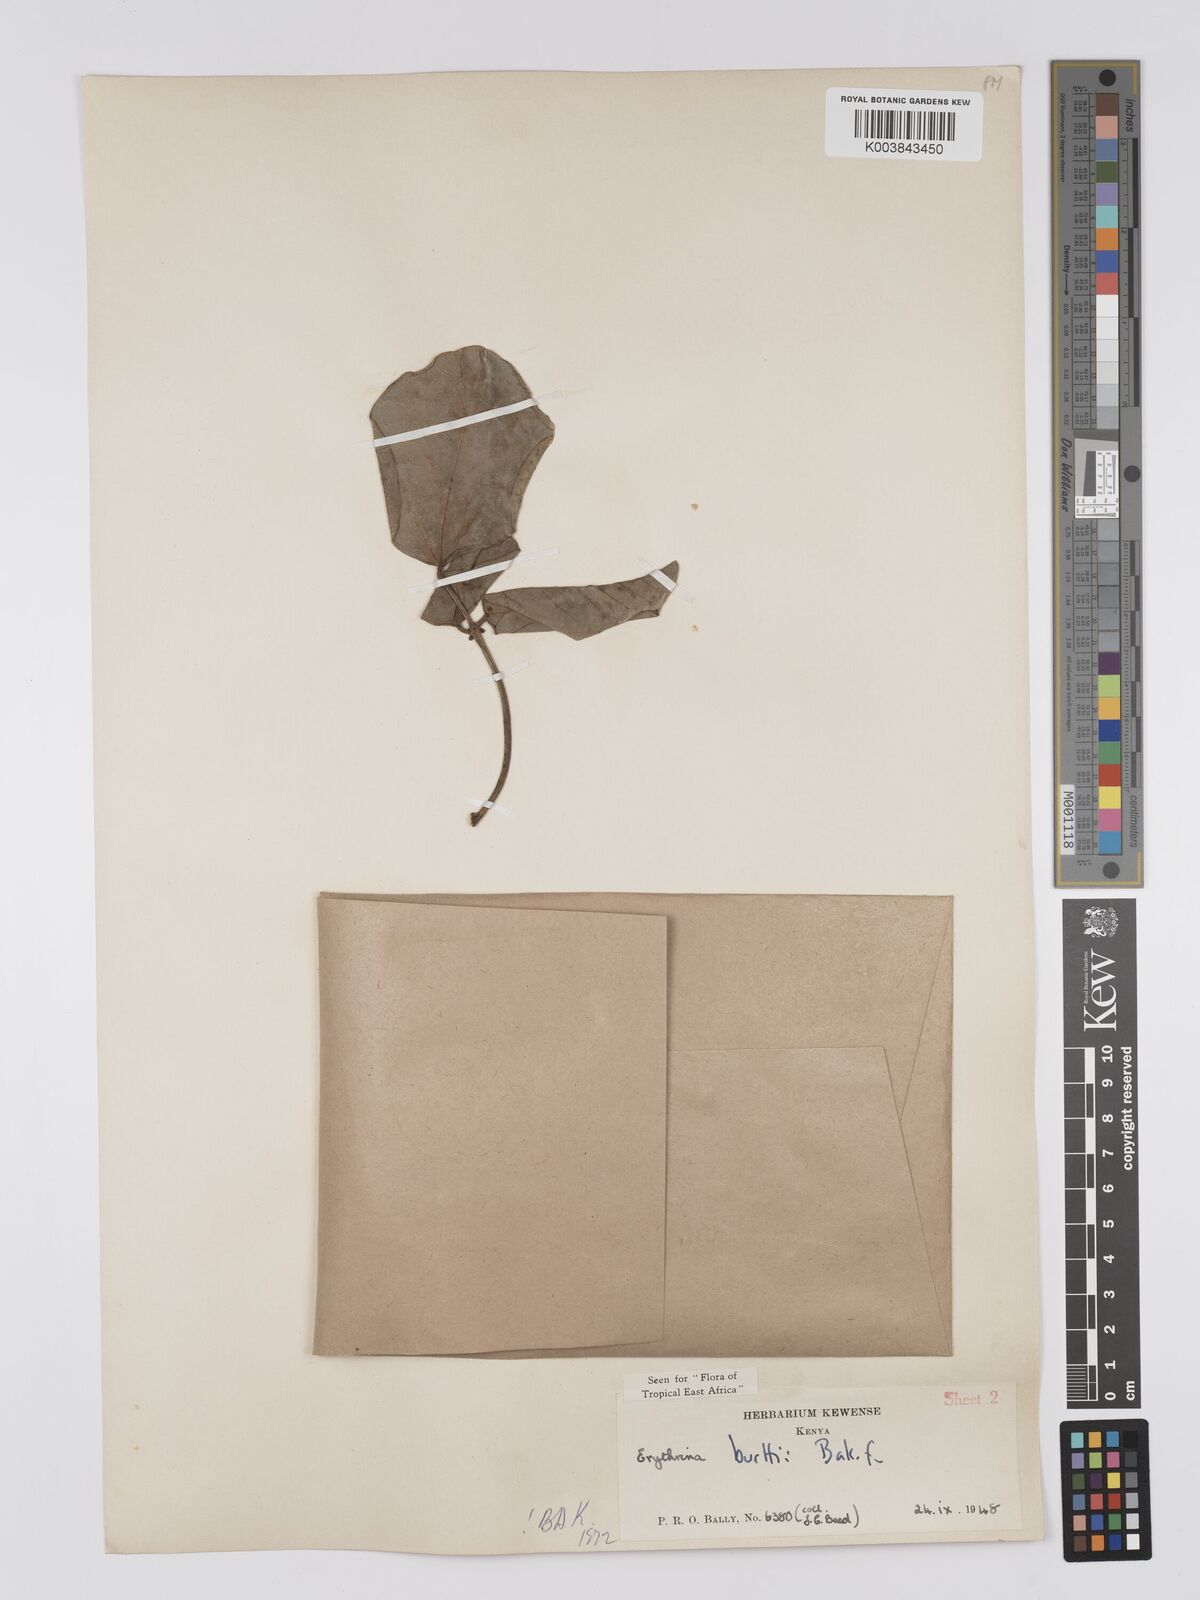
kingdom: Plantae
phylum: Tracheophyta
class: Magnoliopsida
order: Fabales
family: Fabaceae
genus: Erythrina
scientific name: Erythrina burttii
